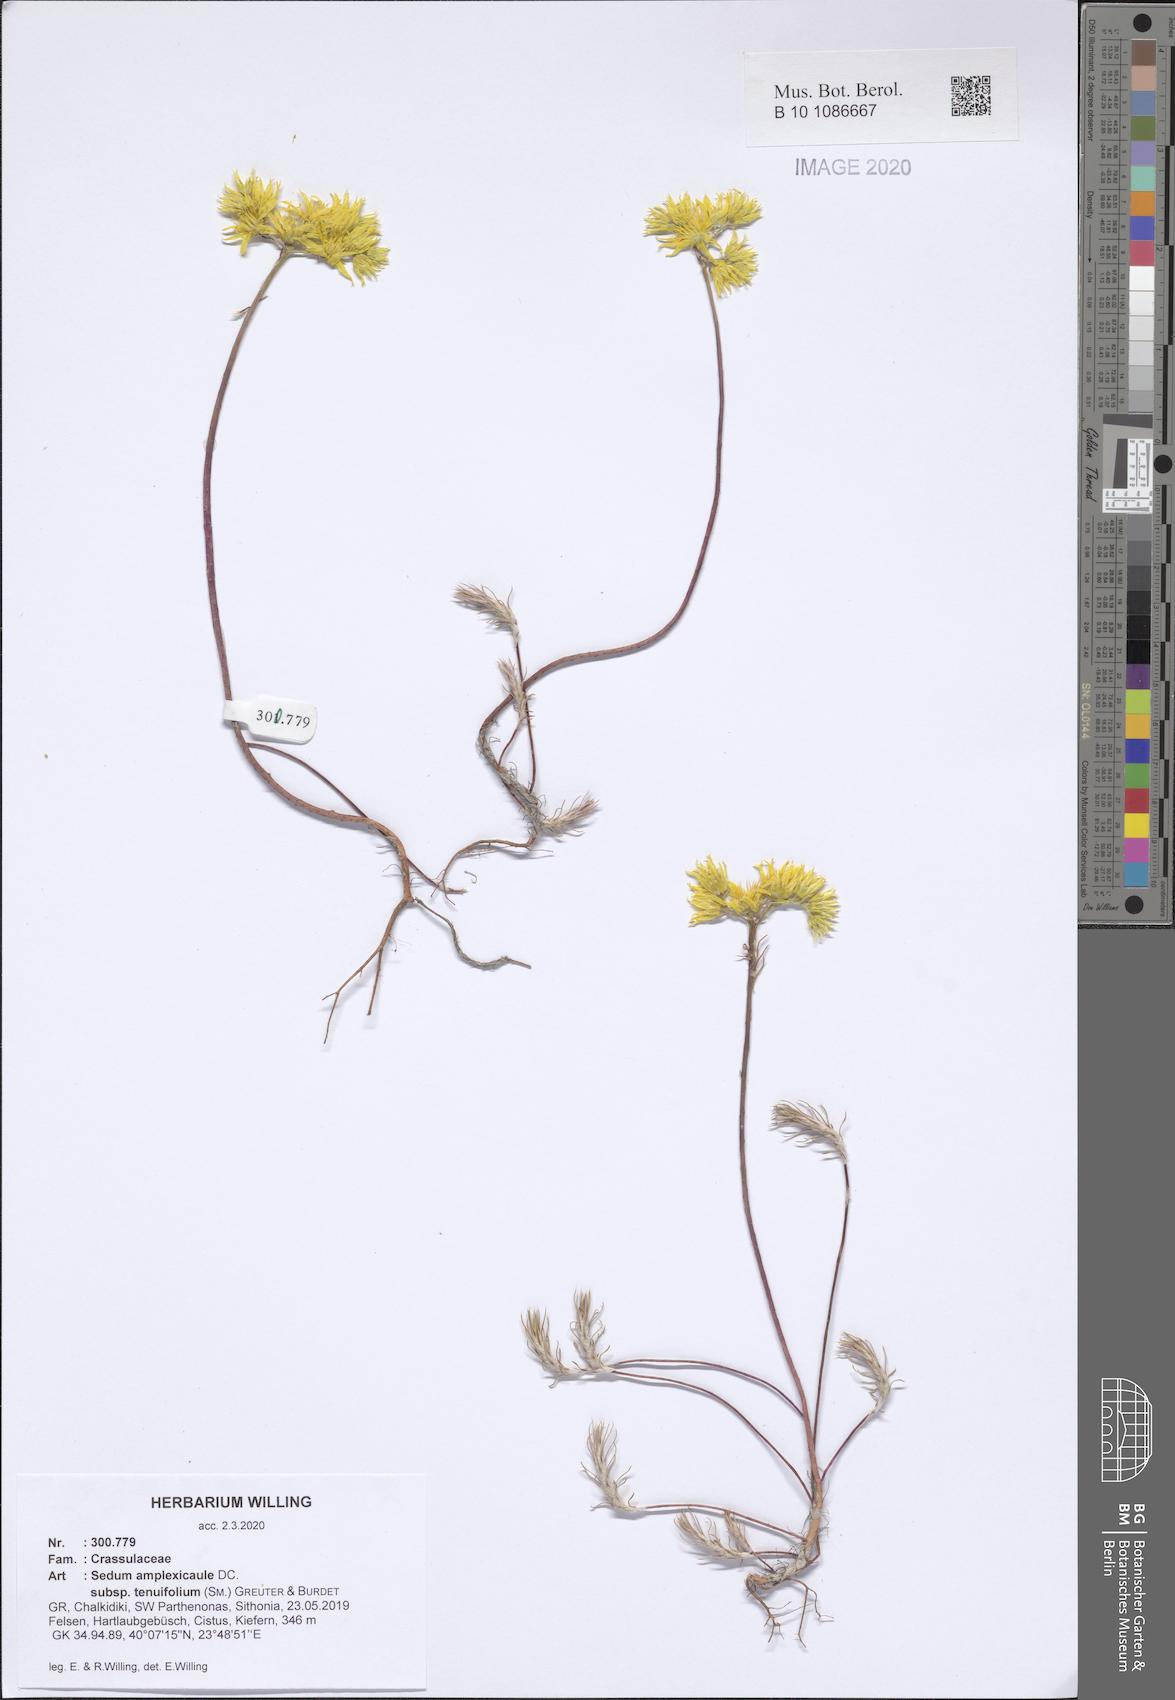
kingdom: Plantae
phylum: Tracheophyta
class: Magnoliopsida
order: Saxifragales
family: Crassulaceae
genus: Petrosedum
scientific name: Petrosedum tenuifolium
